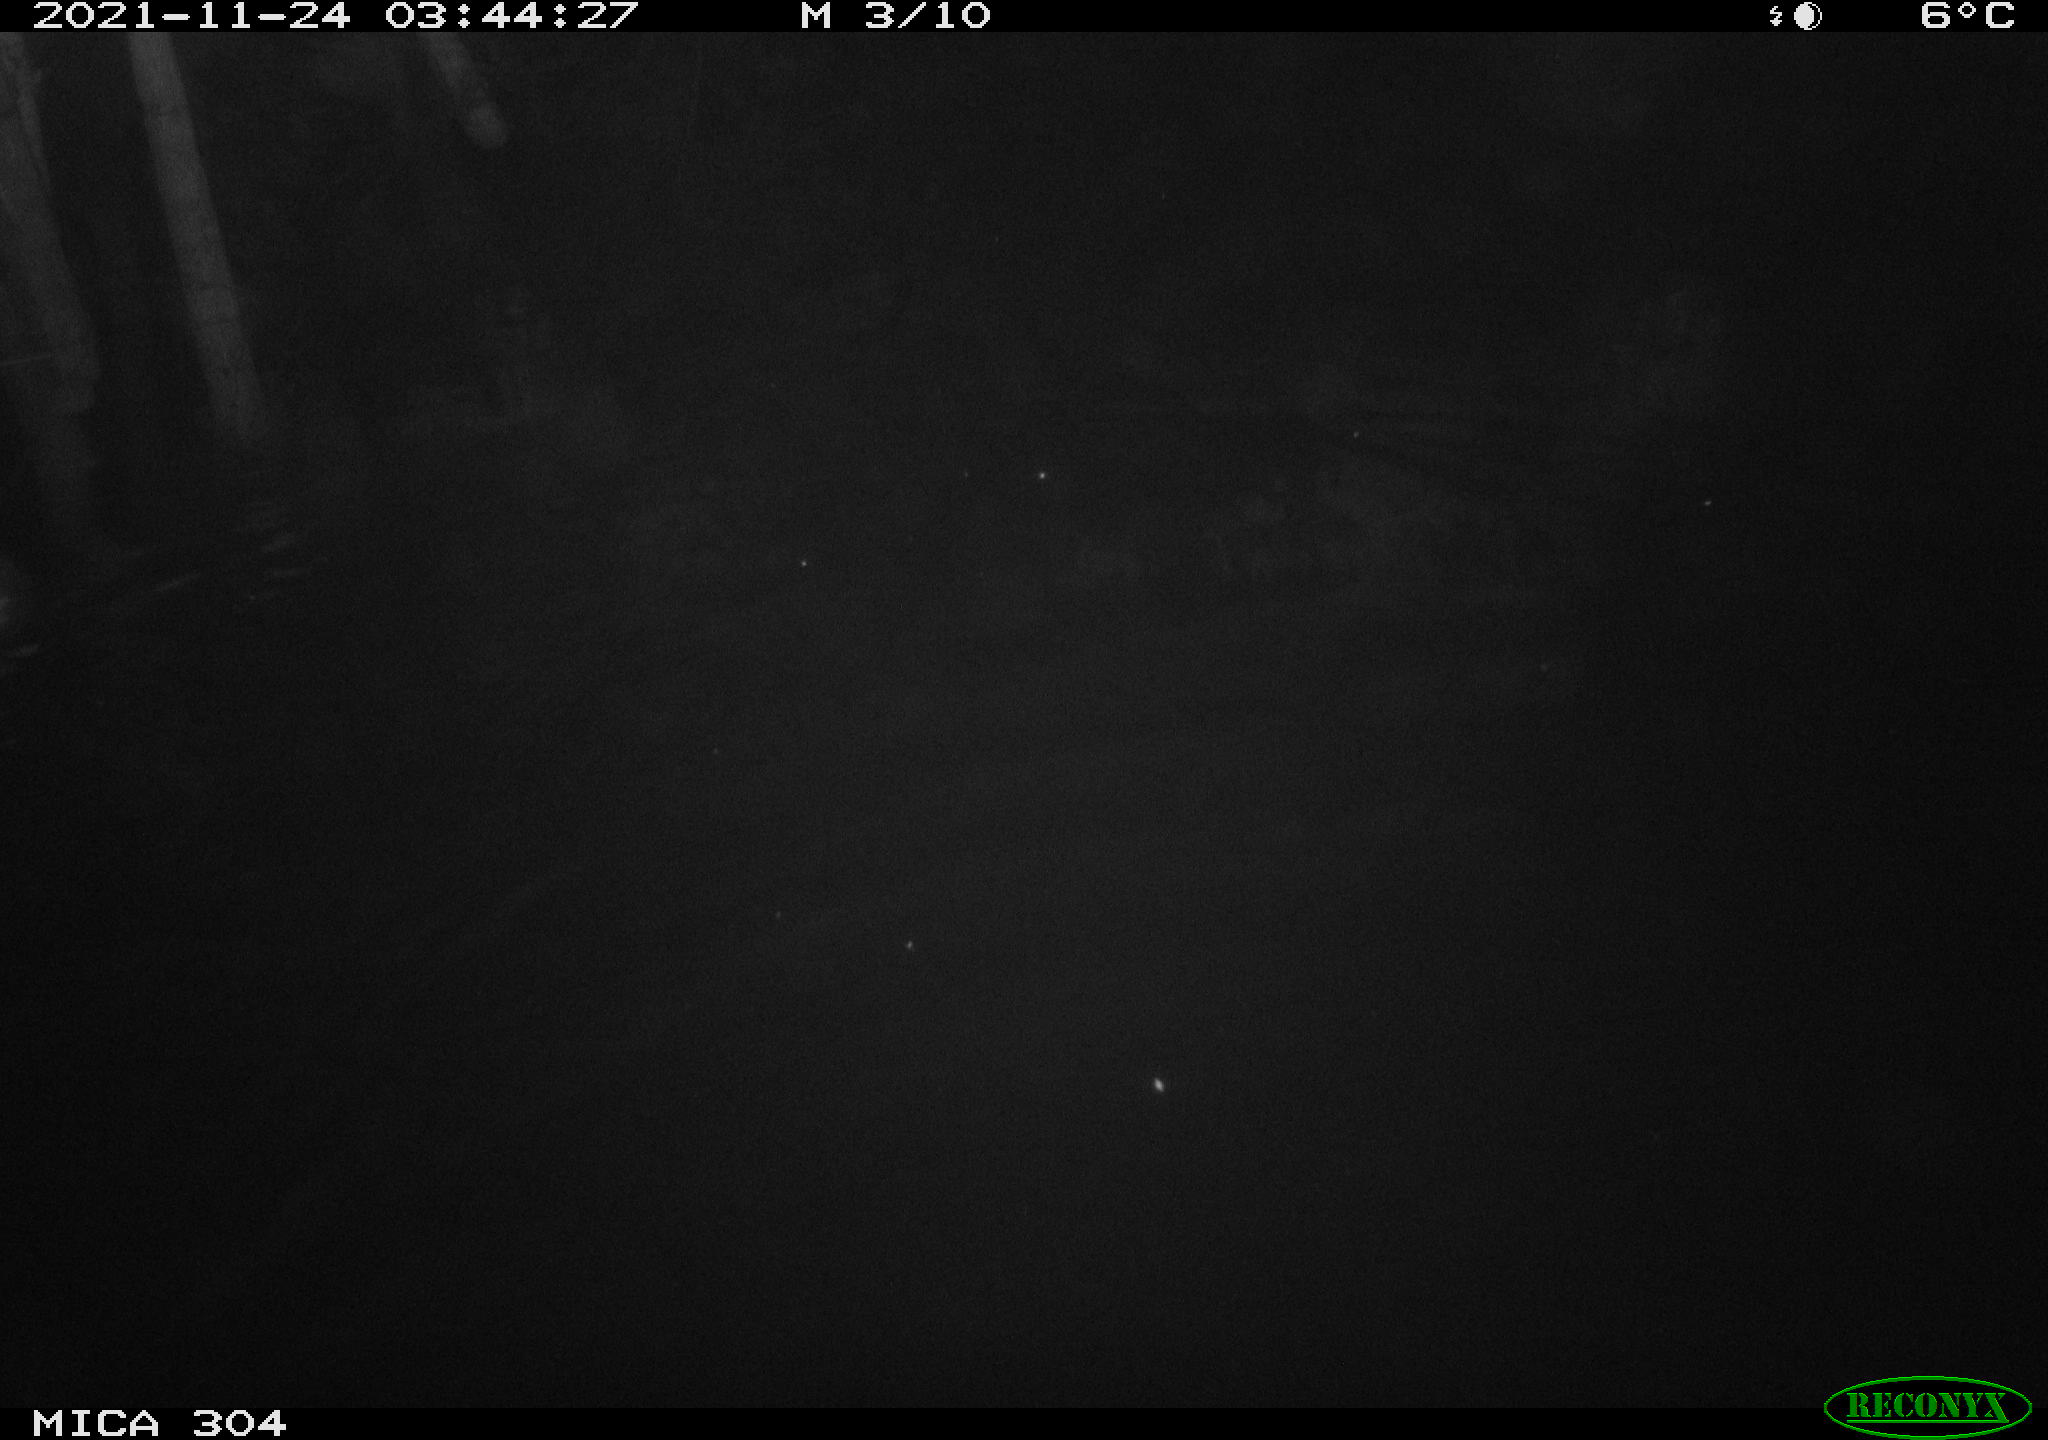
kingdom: Animalia
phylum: Chordata
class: Mammalia
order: Rodentia
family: Muridae
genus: Rattus
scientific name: Rattus norvegicus
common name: Brown rat
